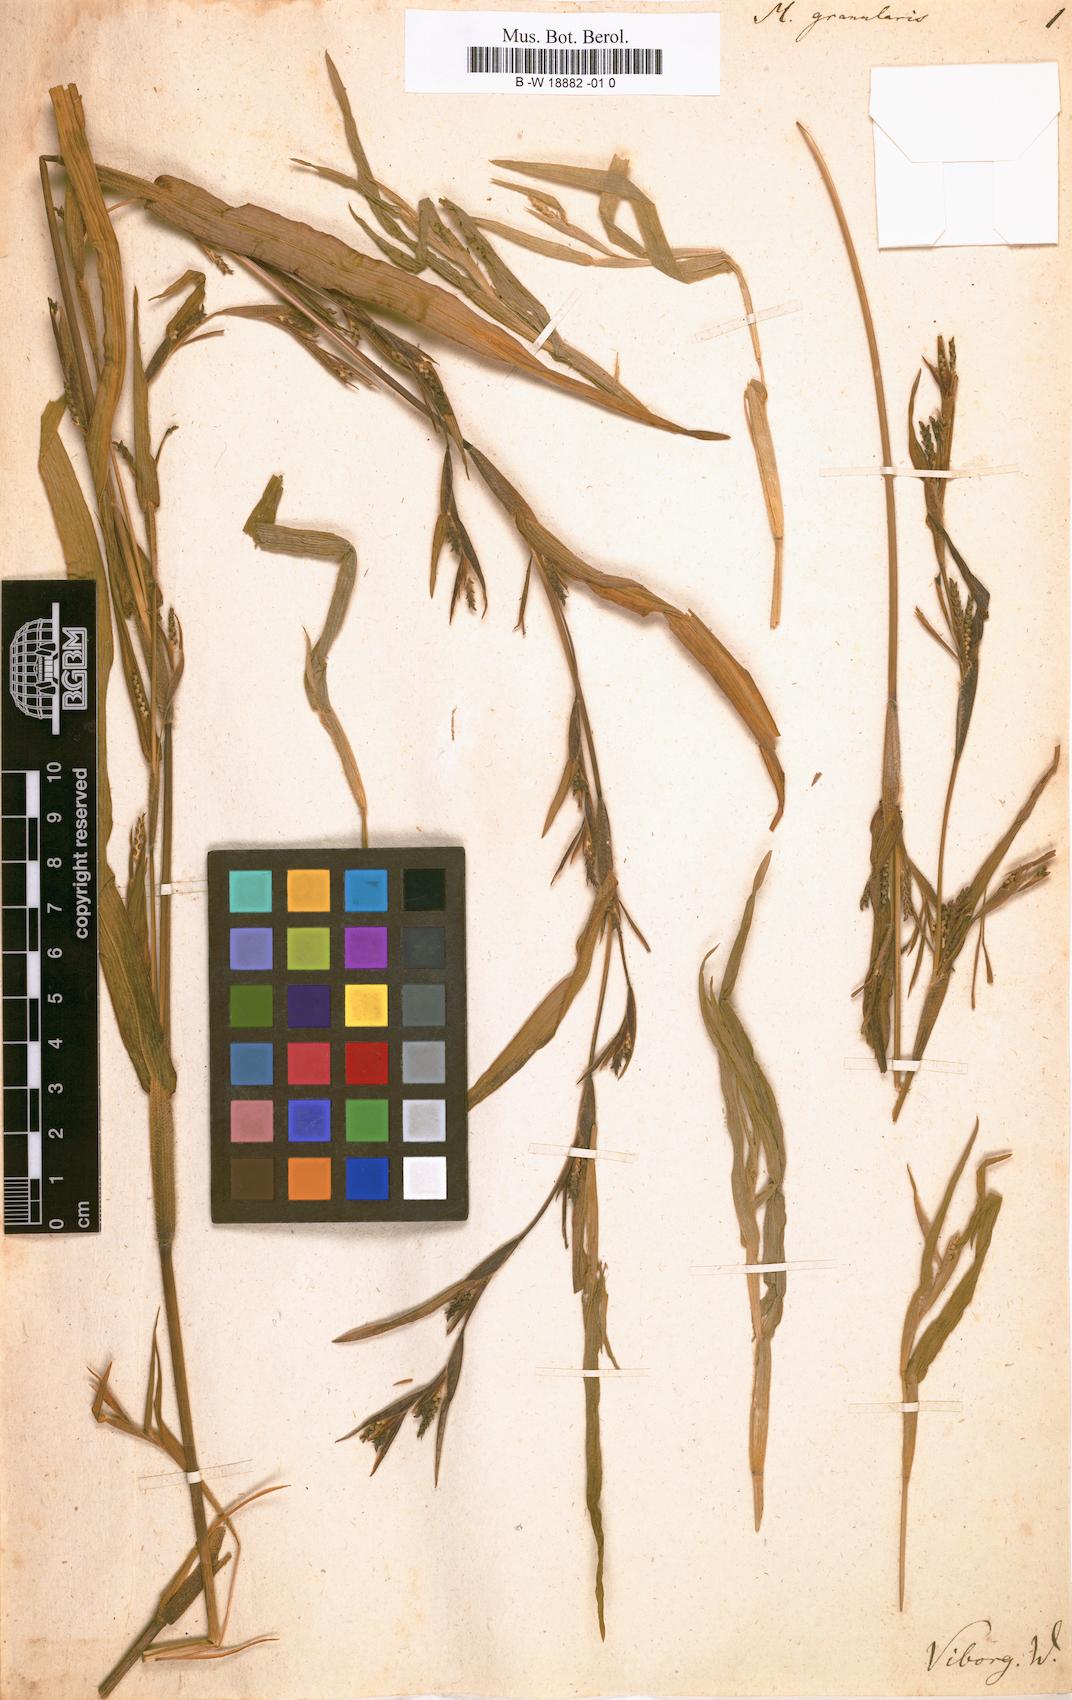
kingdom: Plantae
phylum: Tracheophyta
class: Liliopsida
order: Poales
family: Poaceae
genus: Hackelochloa
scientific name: Hackelochloa granularis
